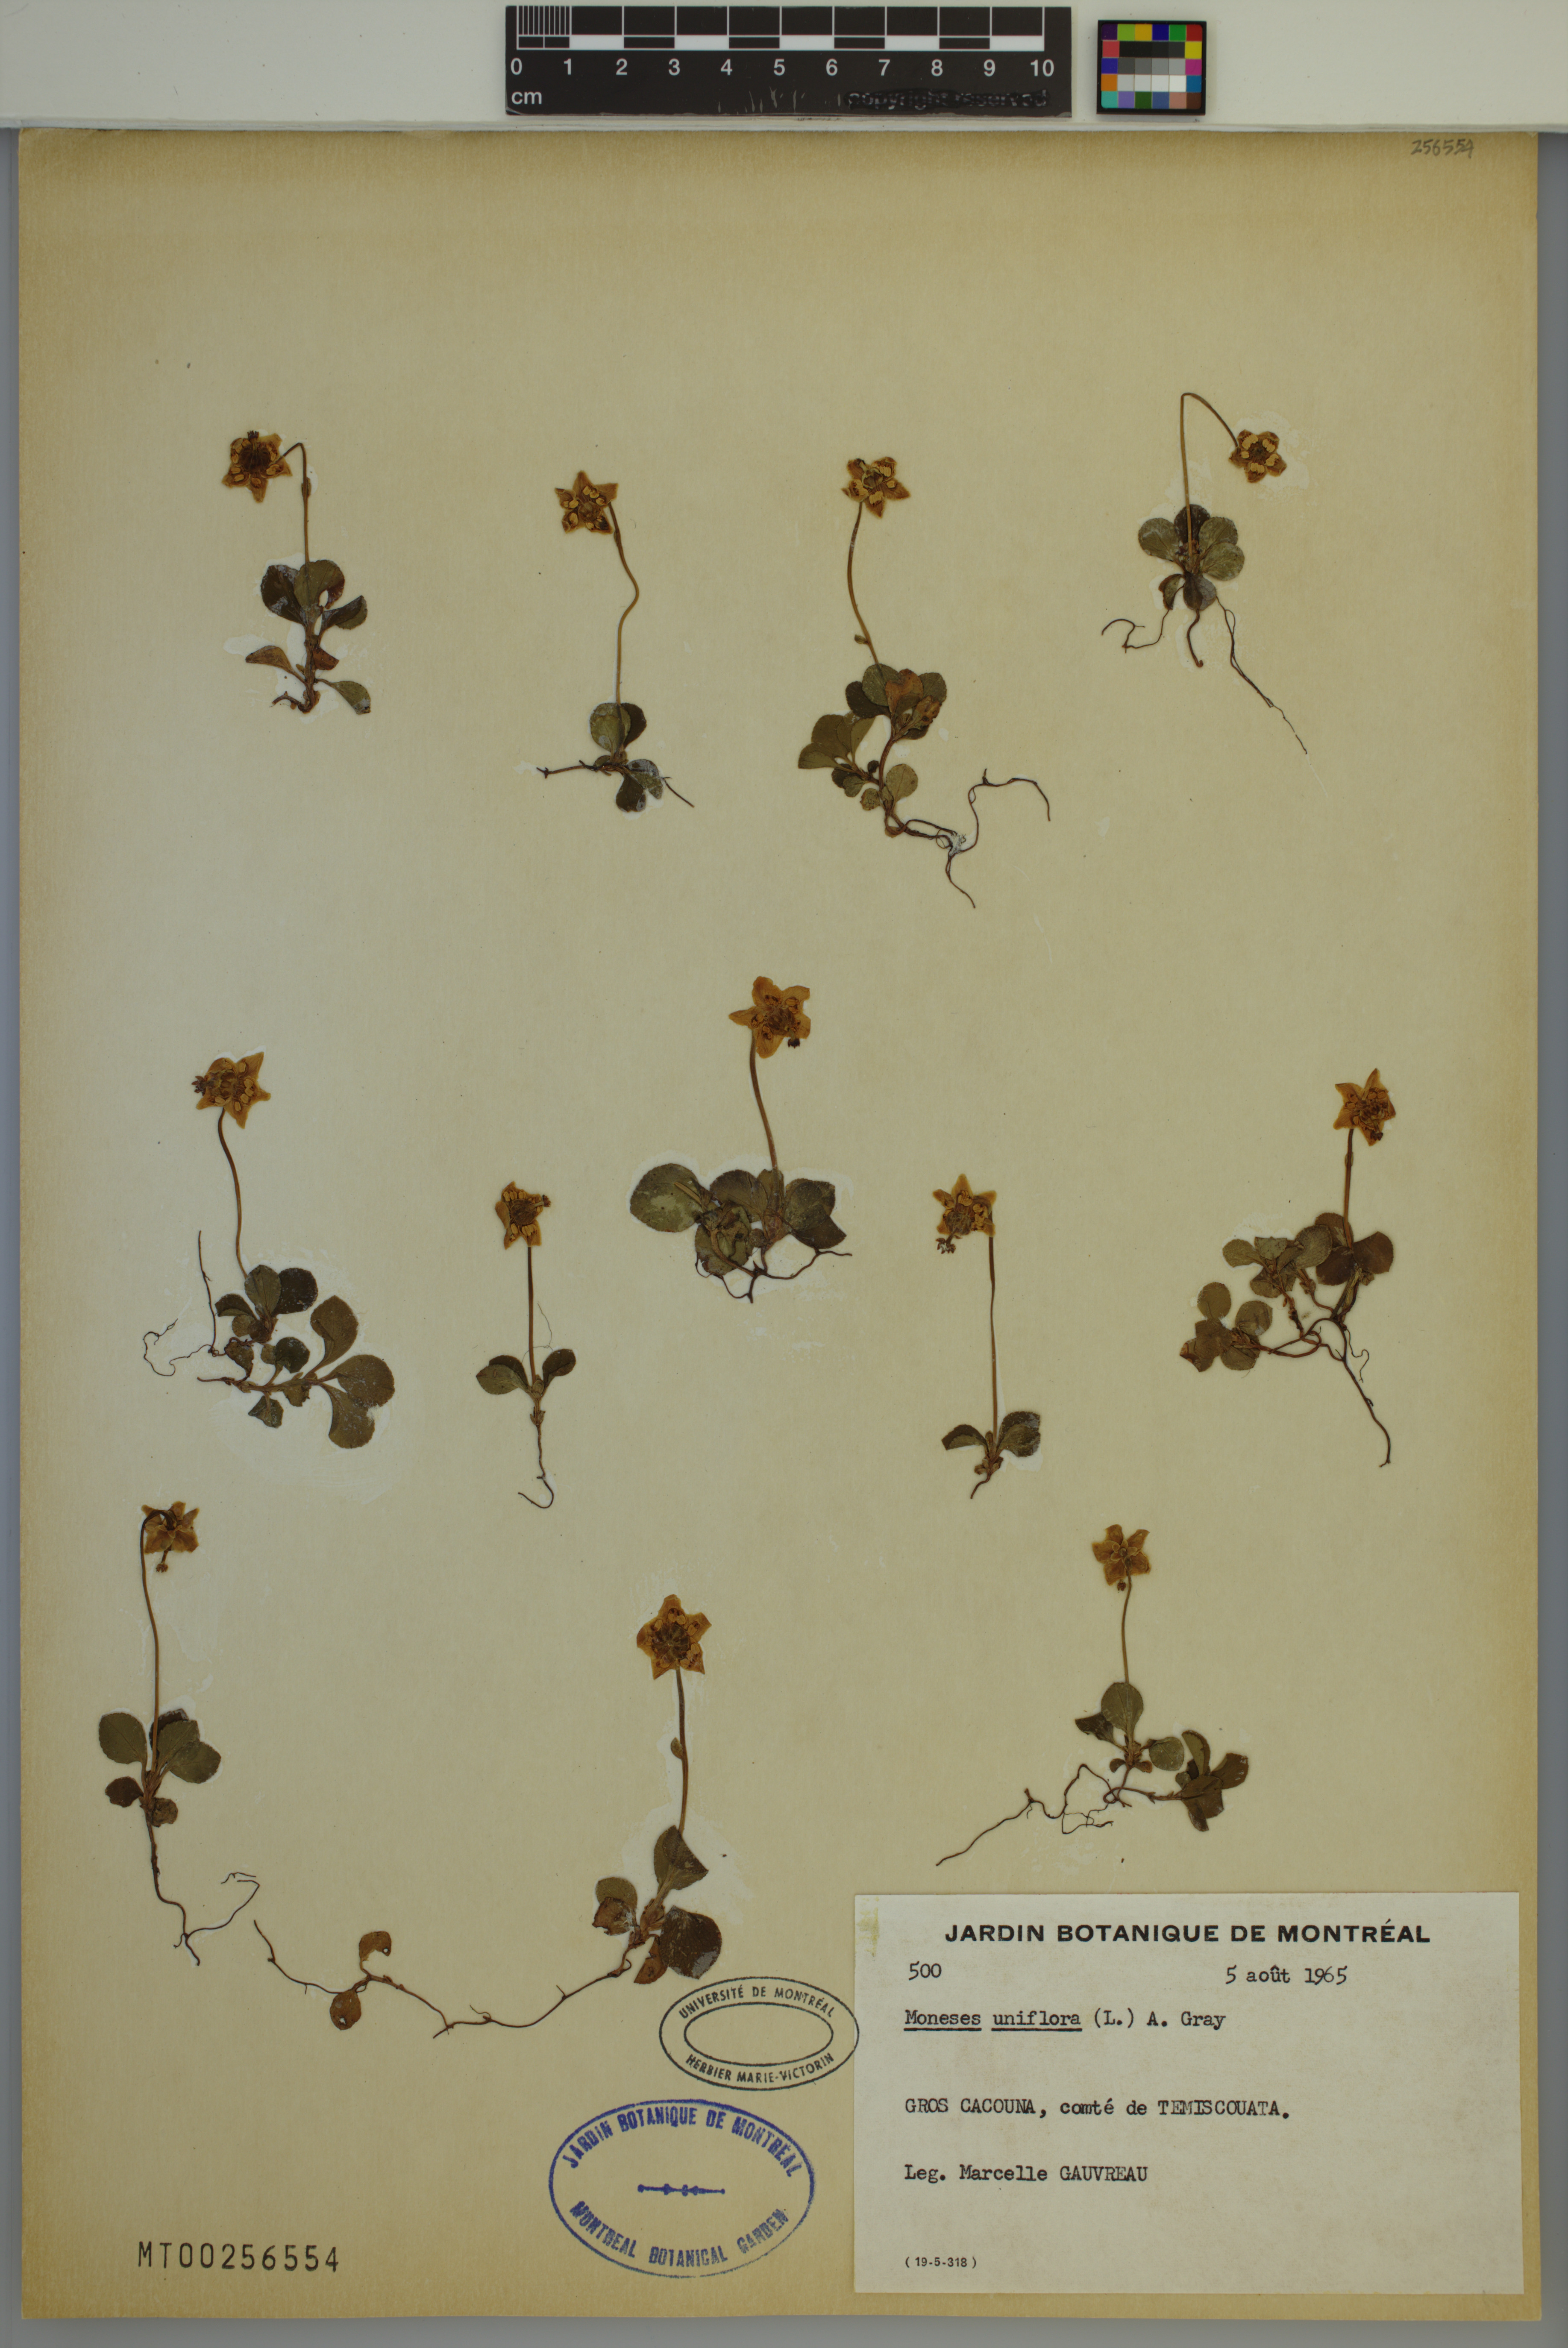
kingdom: Plantae
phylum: Tracheophyta
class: Magnoliopsida
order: Ericales
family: Ericaceae
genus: Moneses
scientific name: Moneses uniflora
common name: One-flowered wintergreen
